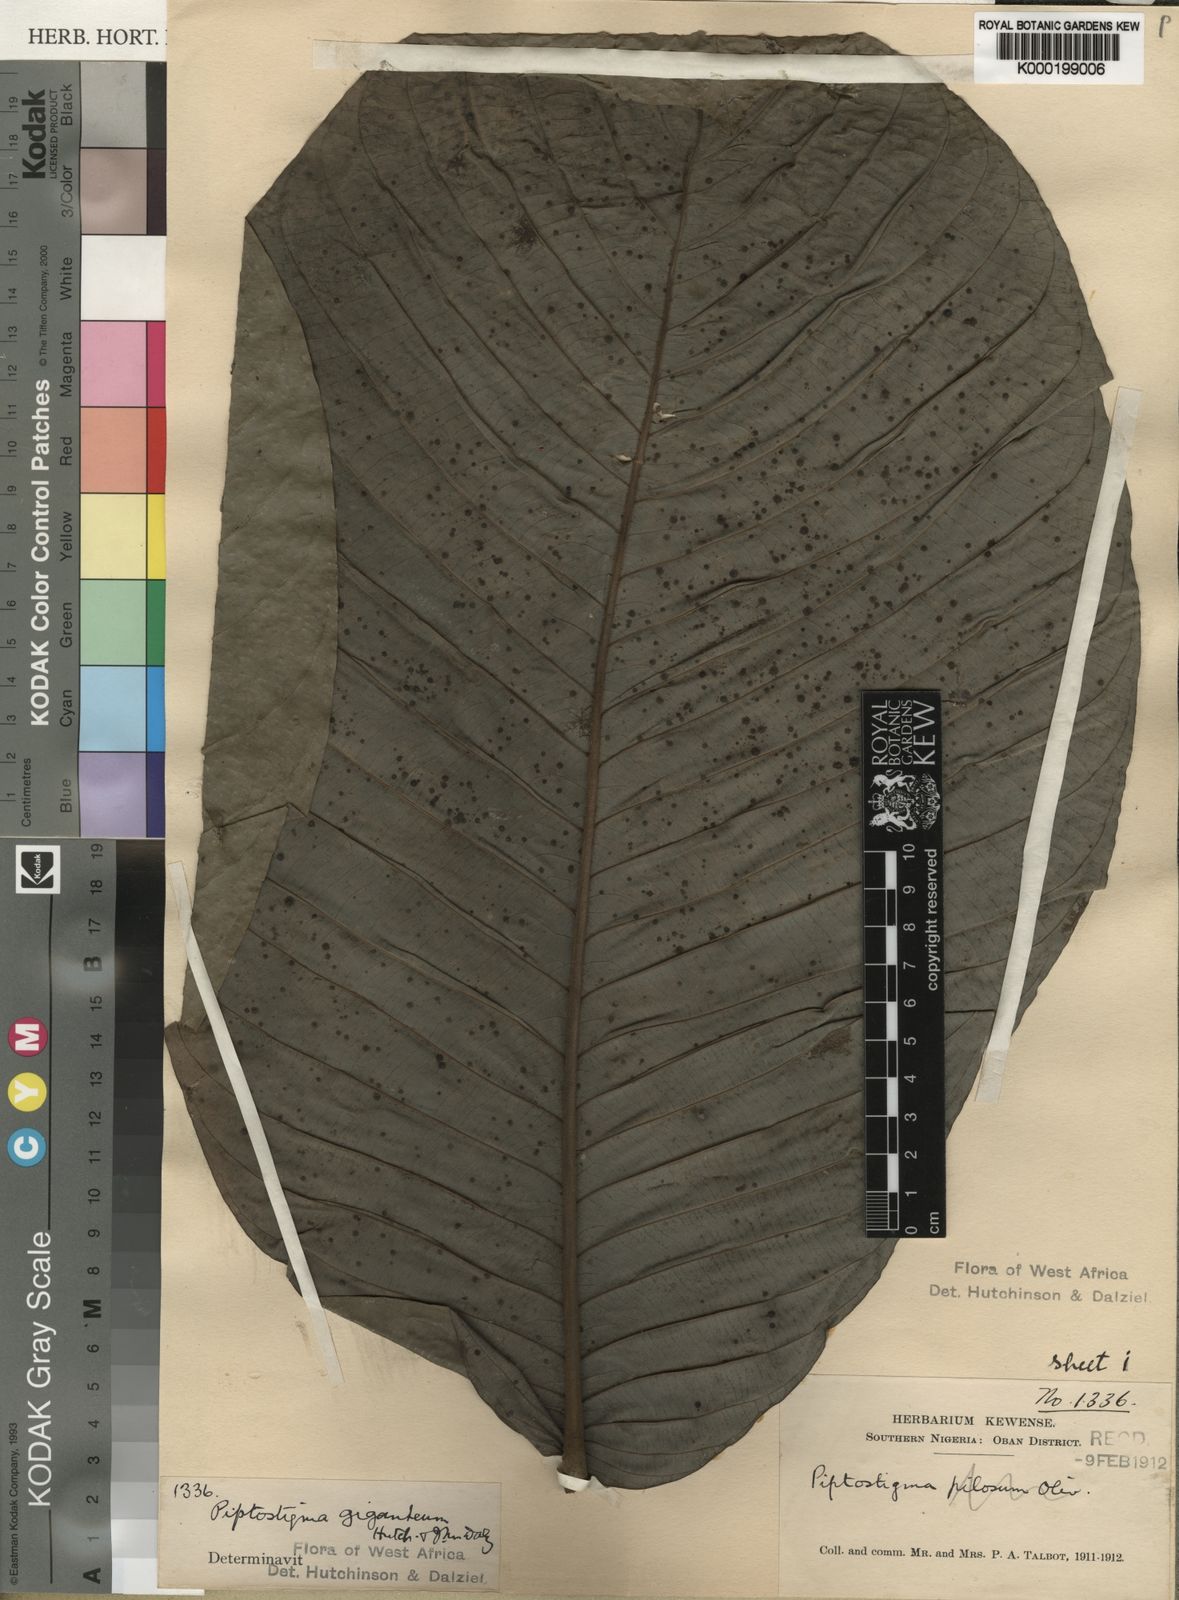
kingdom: Plantae
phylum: Tracheophyta
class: Magnoliopsida
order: Magnoliales
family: Annonaceae
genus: Piptostigma
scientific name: Piptostigma giganteum
